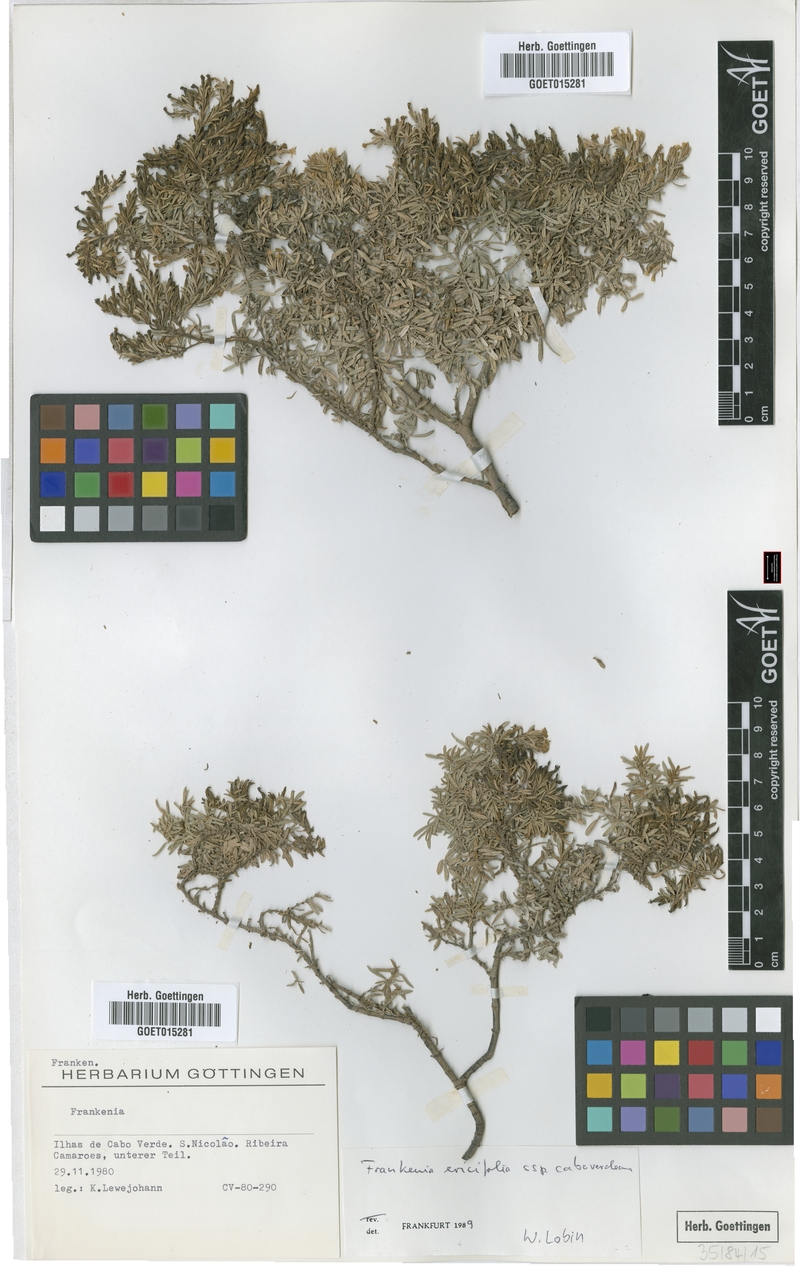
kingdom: Plantae
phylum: Tracheophyta
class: Magnoliopsida
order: Caryophyllales
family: Frankeniaceae
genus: Frankenia
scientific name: Frankenia caboverdeana
